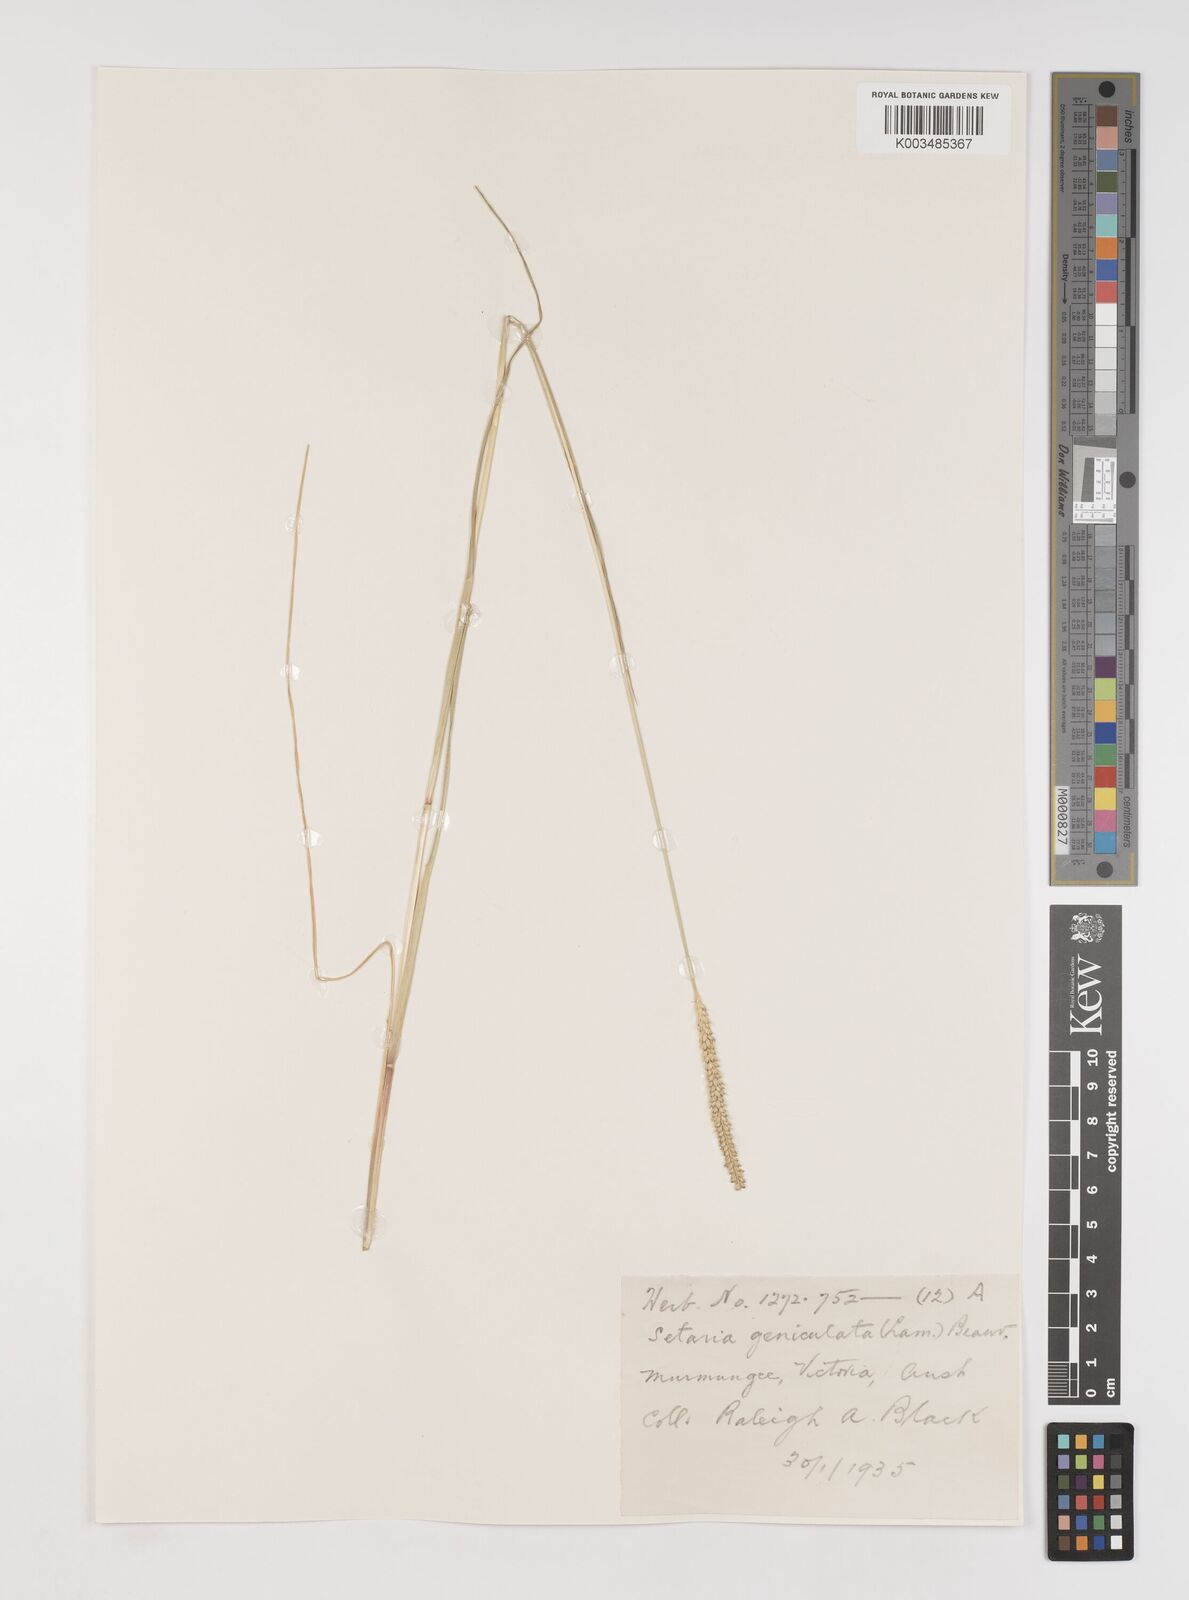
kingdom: Plantae
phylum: Tracheophyta
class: Liliopsida
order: Poales
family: Poaceae
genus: Setaria
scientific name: Setaria parviflora
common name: Knotroot bristle-grass
